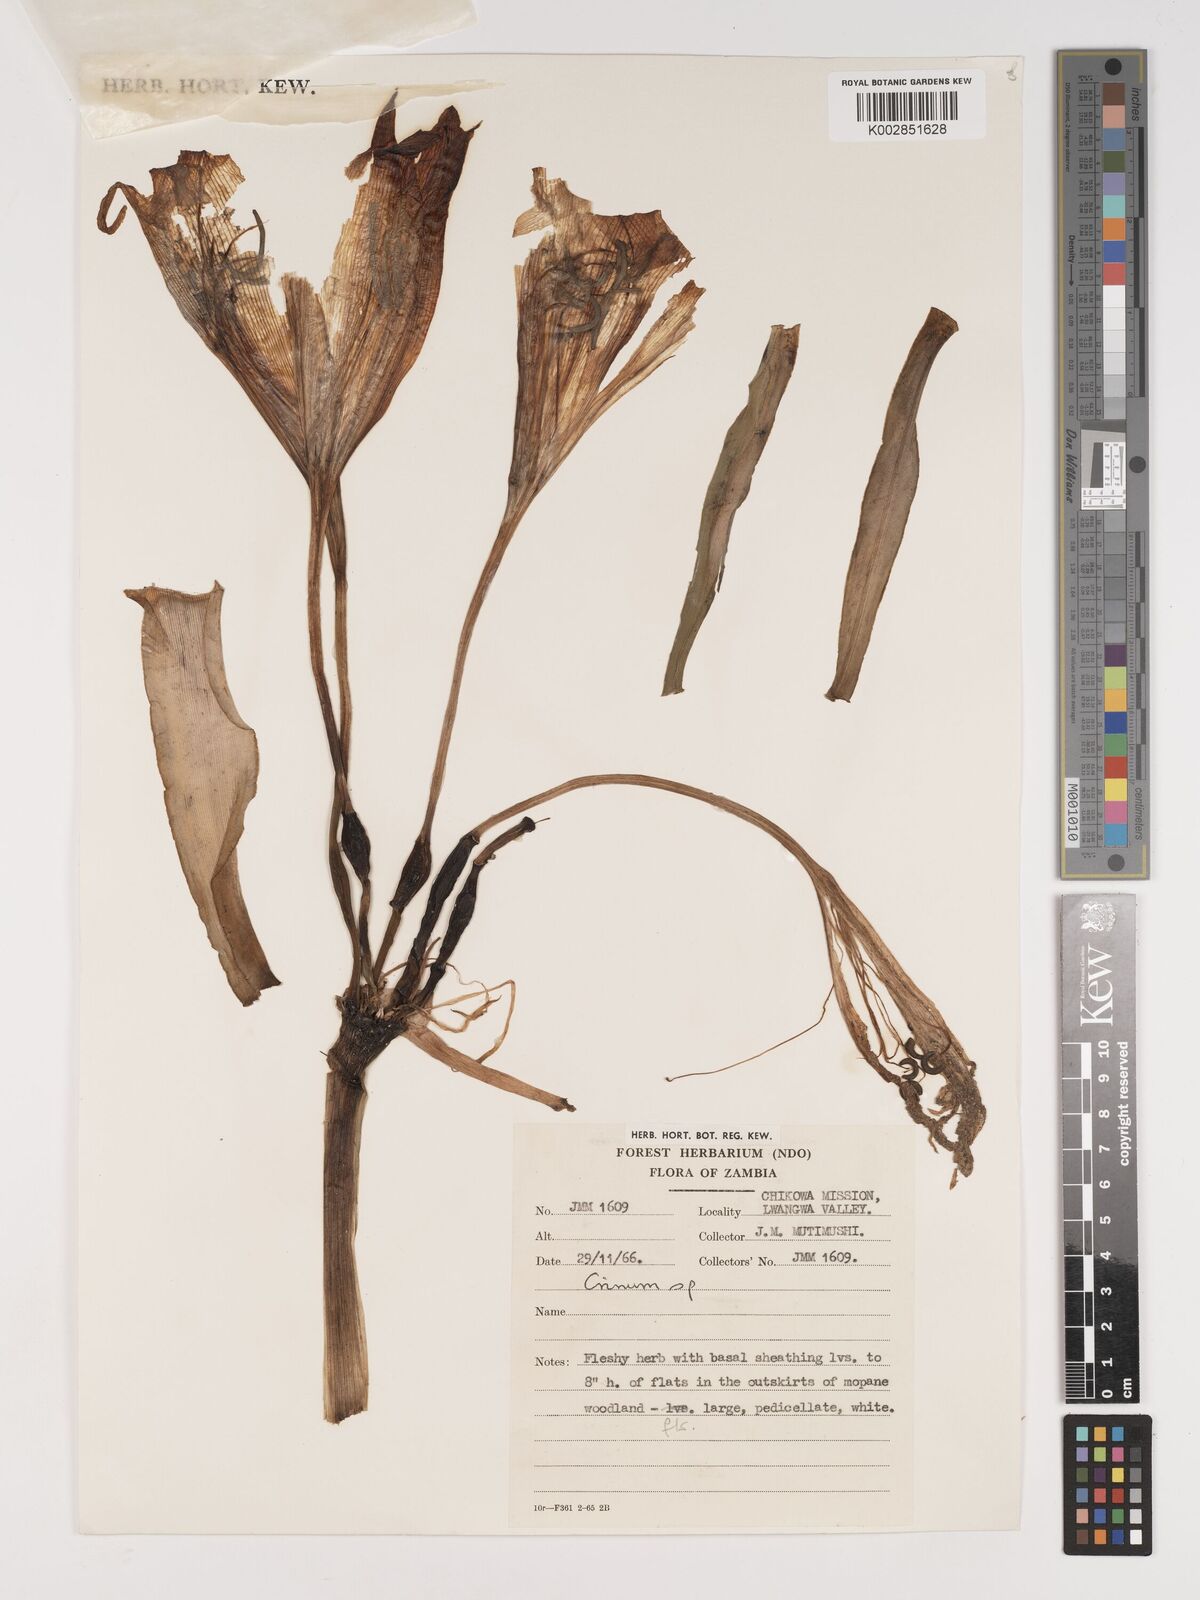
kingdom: Plantae
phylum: Tracheophyta
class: Liliopsida
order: Asparagales
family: Amaryllidaceae
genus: Crinum
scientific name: Crinum macowanii
